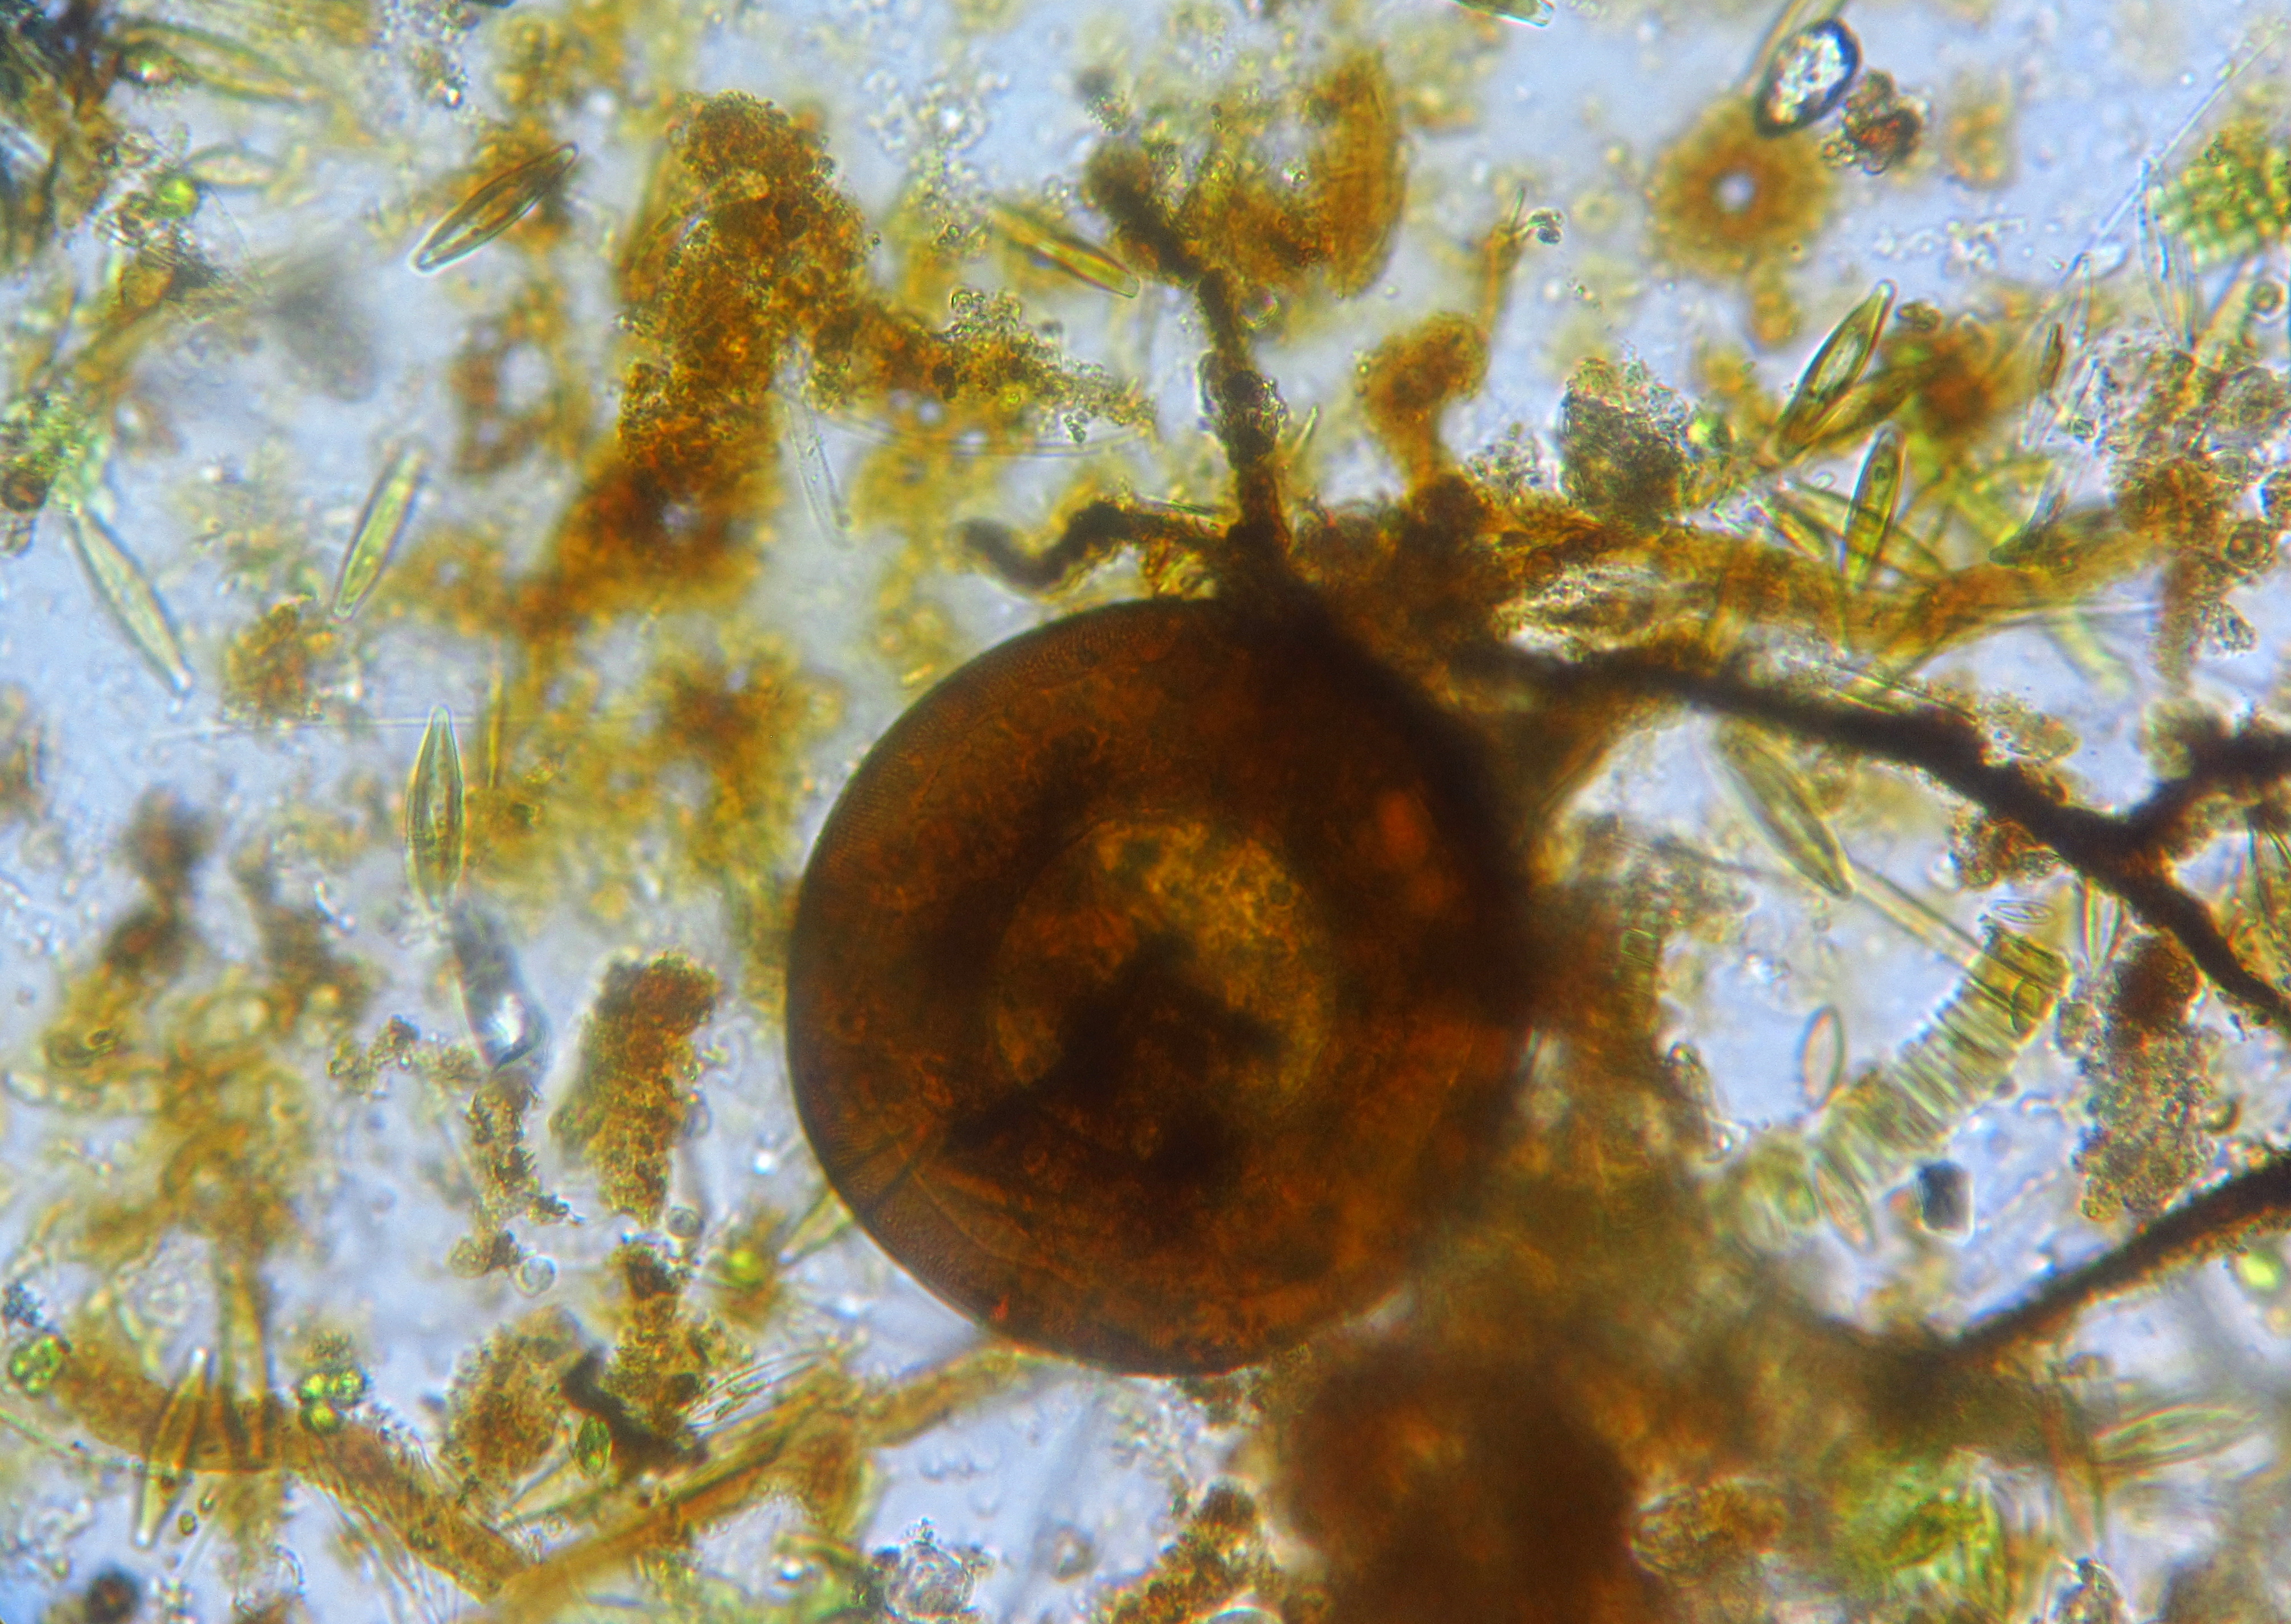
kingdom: Protozoa
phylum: Amoebozoa
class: Lobosa
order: Arcellinida
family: Arcellidae
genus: Arcella
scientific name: Arcella
